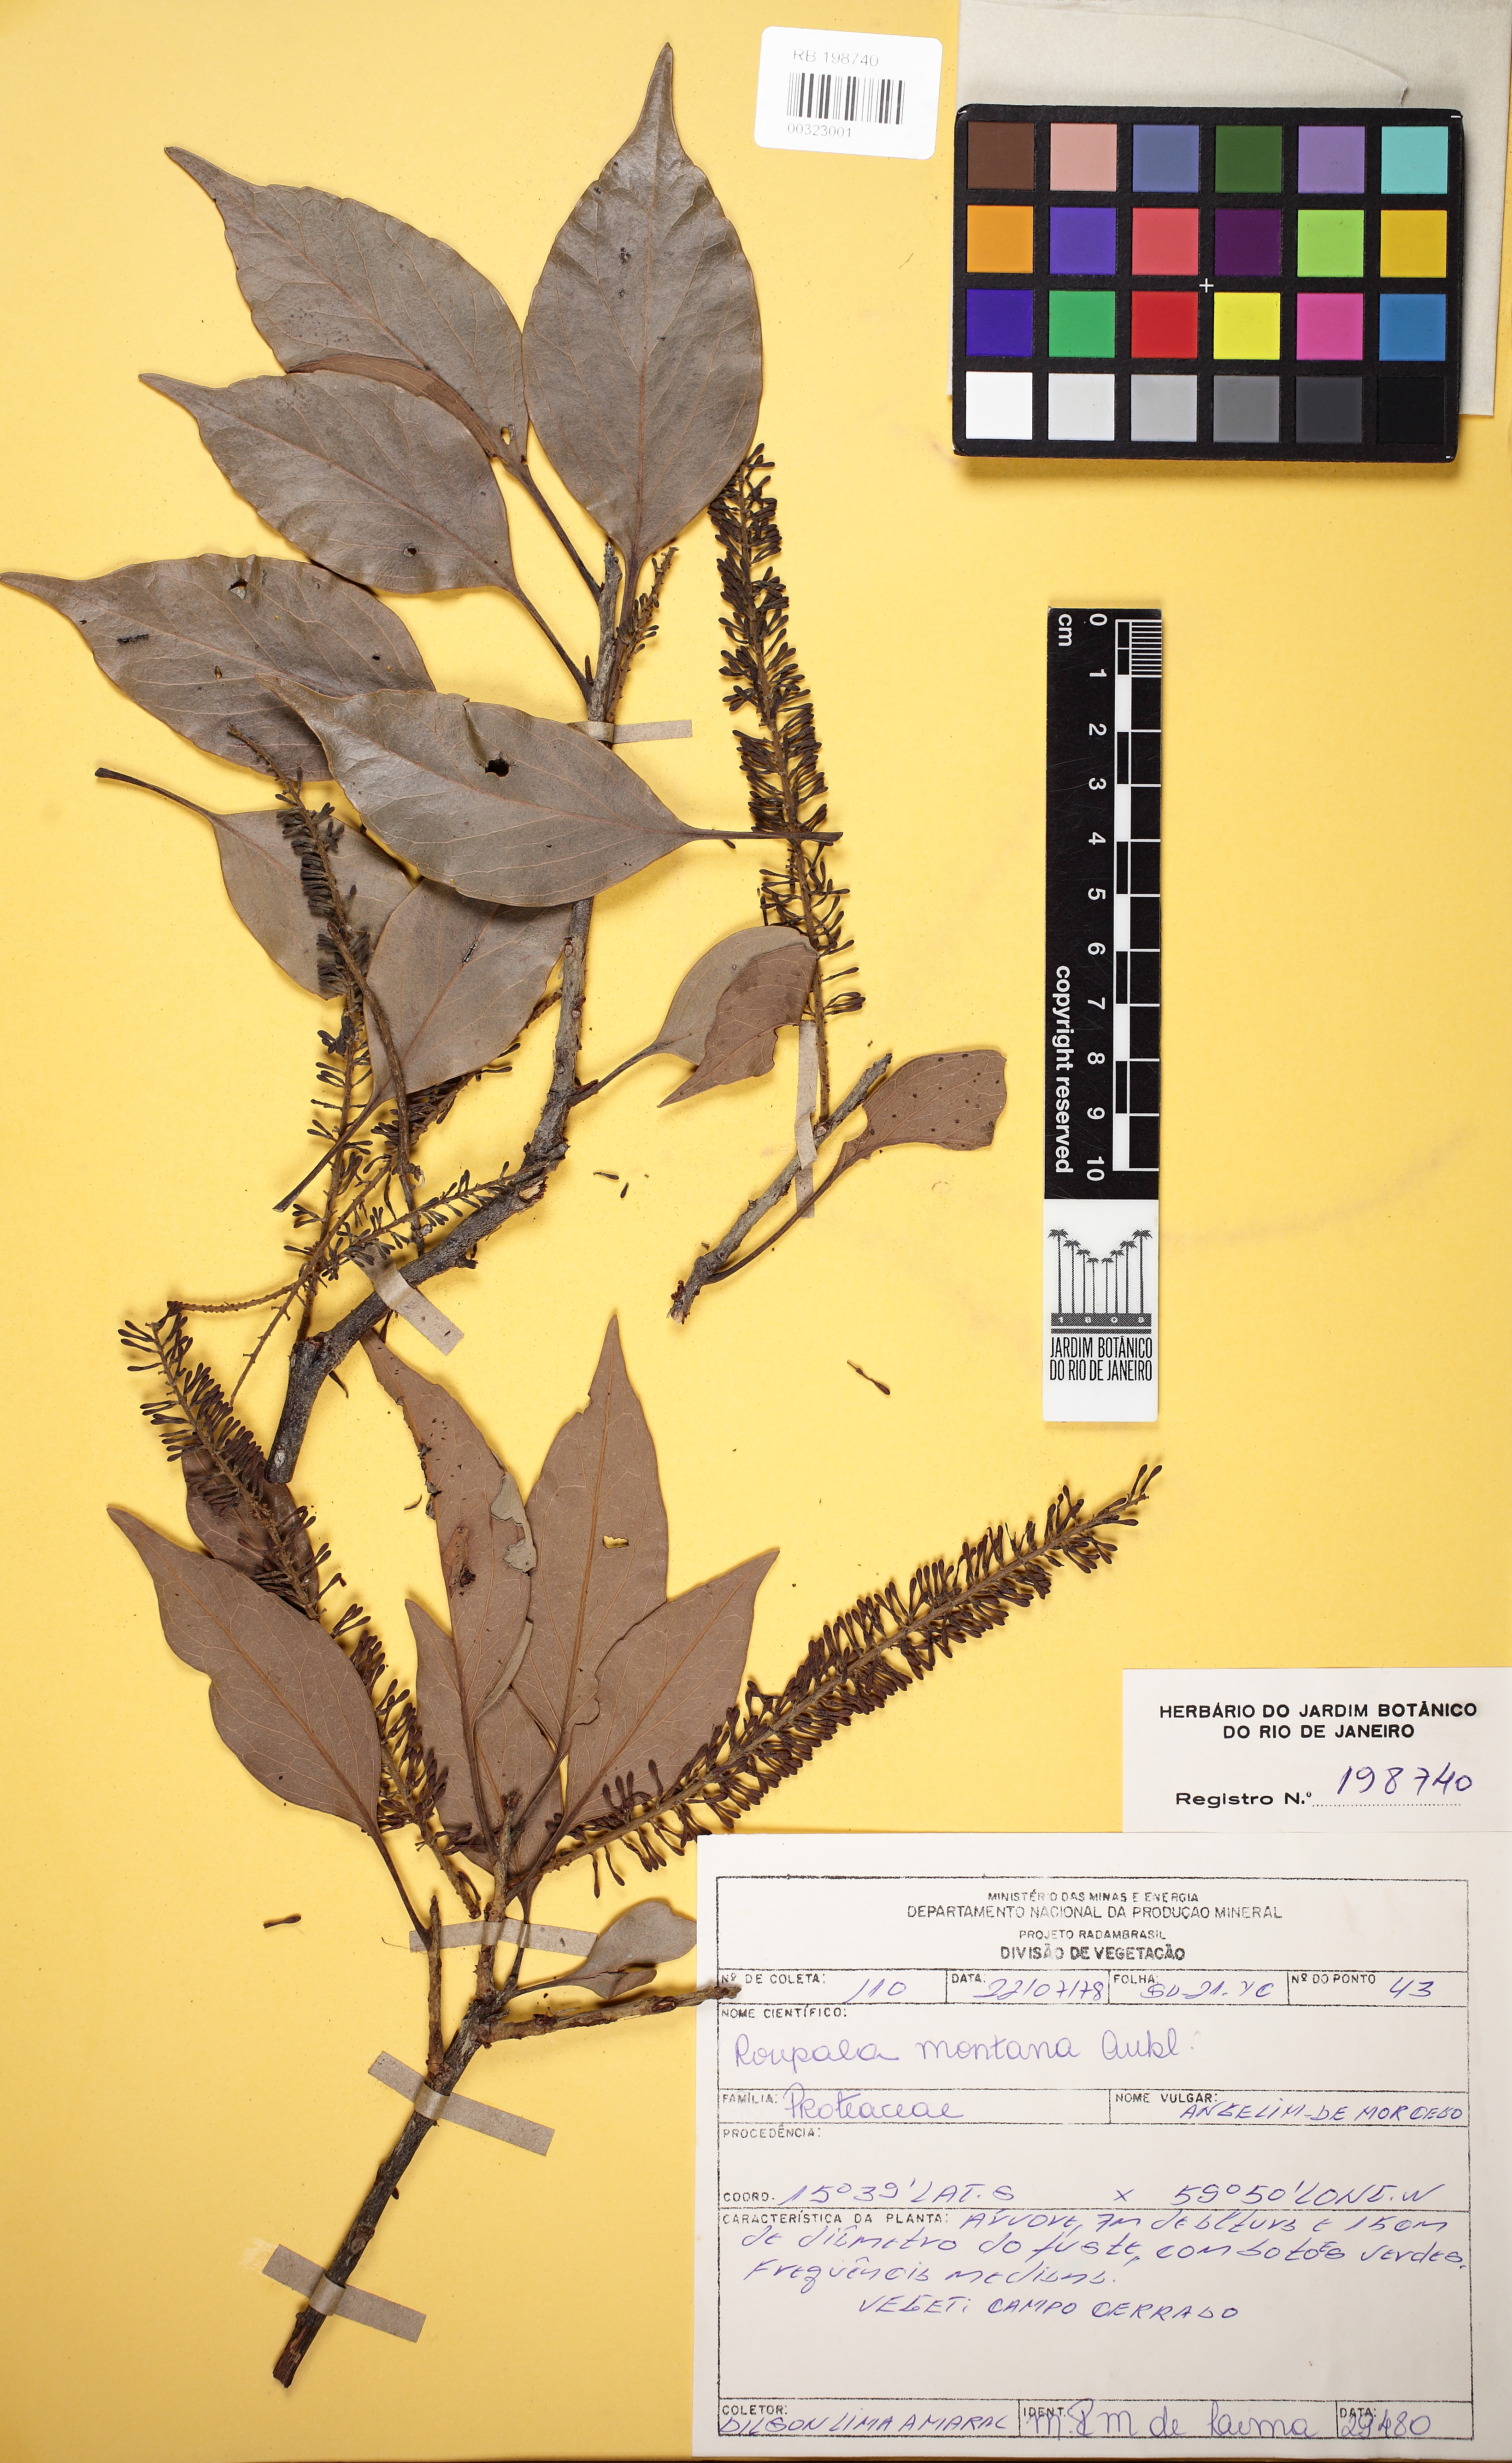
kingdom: Plantae
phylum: Tracheophyta
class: Magnoliopsida
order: Proteales
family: Proteaceae
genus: Roupala
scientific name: Roupala montana
